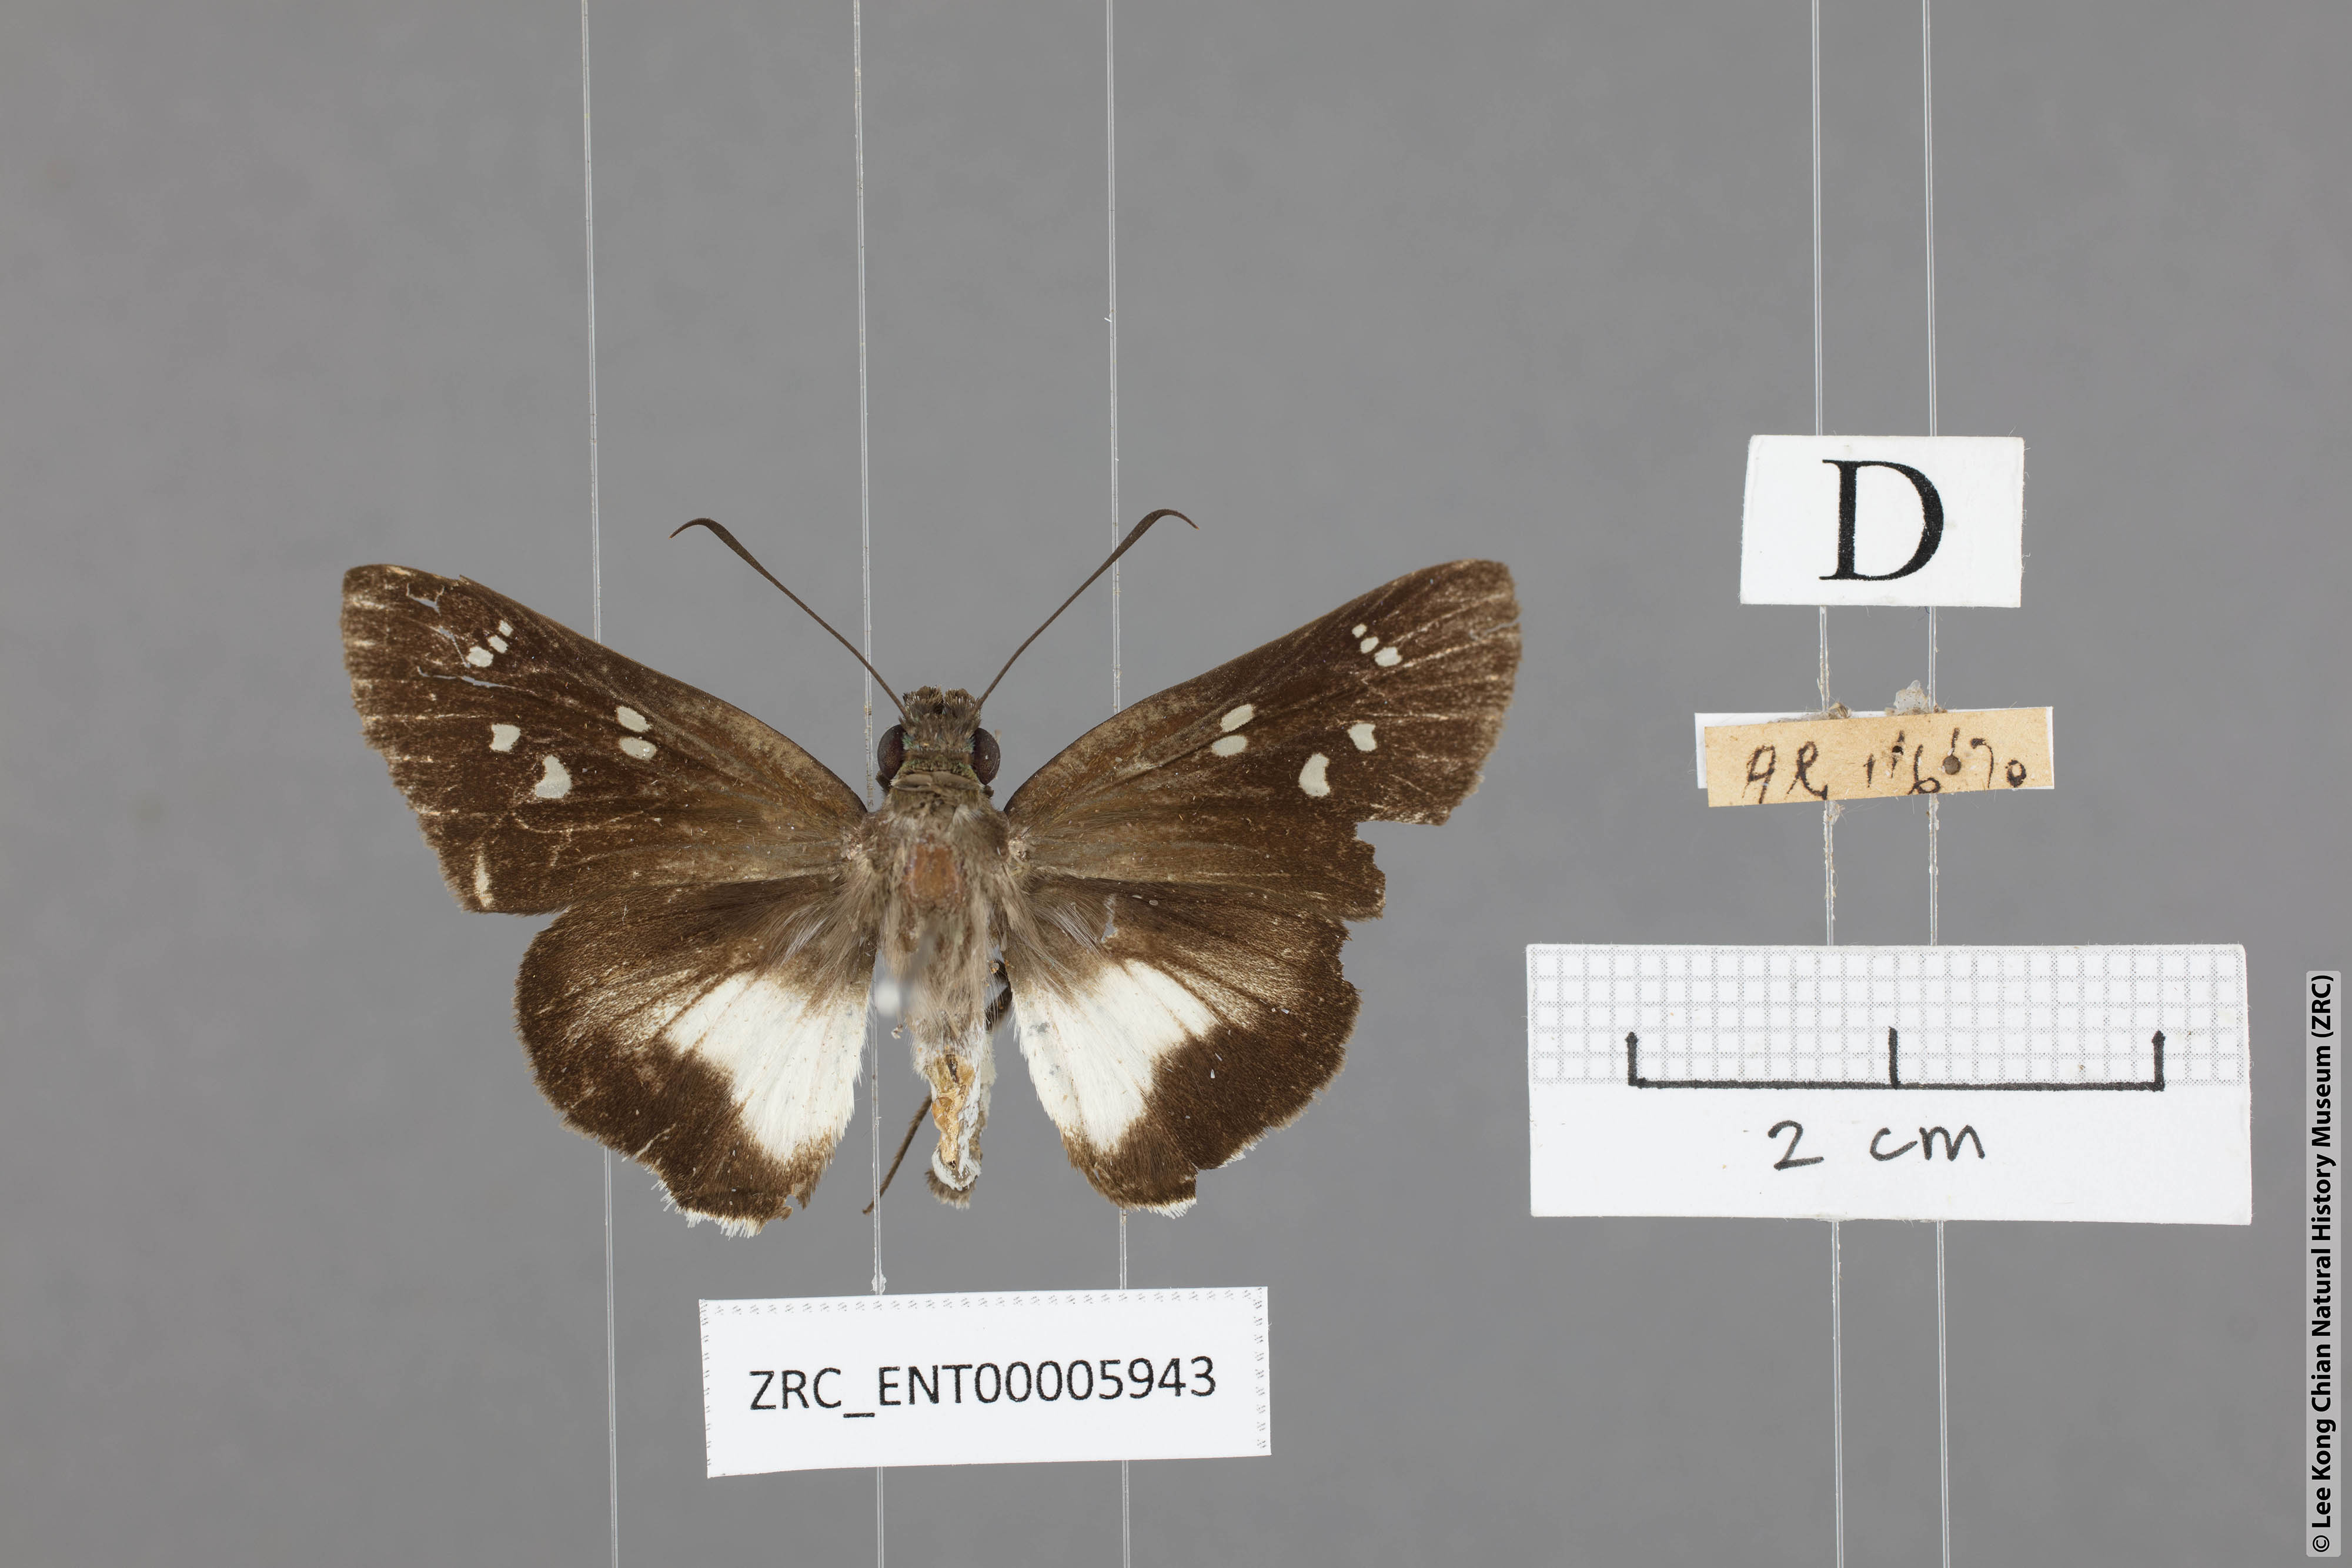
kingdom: Animalia
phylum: Arthropoda
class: Insecta
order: Lepidoptera
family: Hesperiidae
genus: Acerbas
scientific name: Acerbas martini
